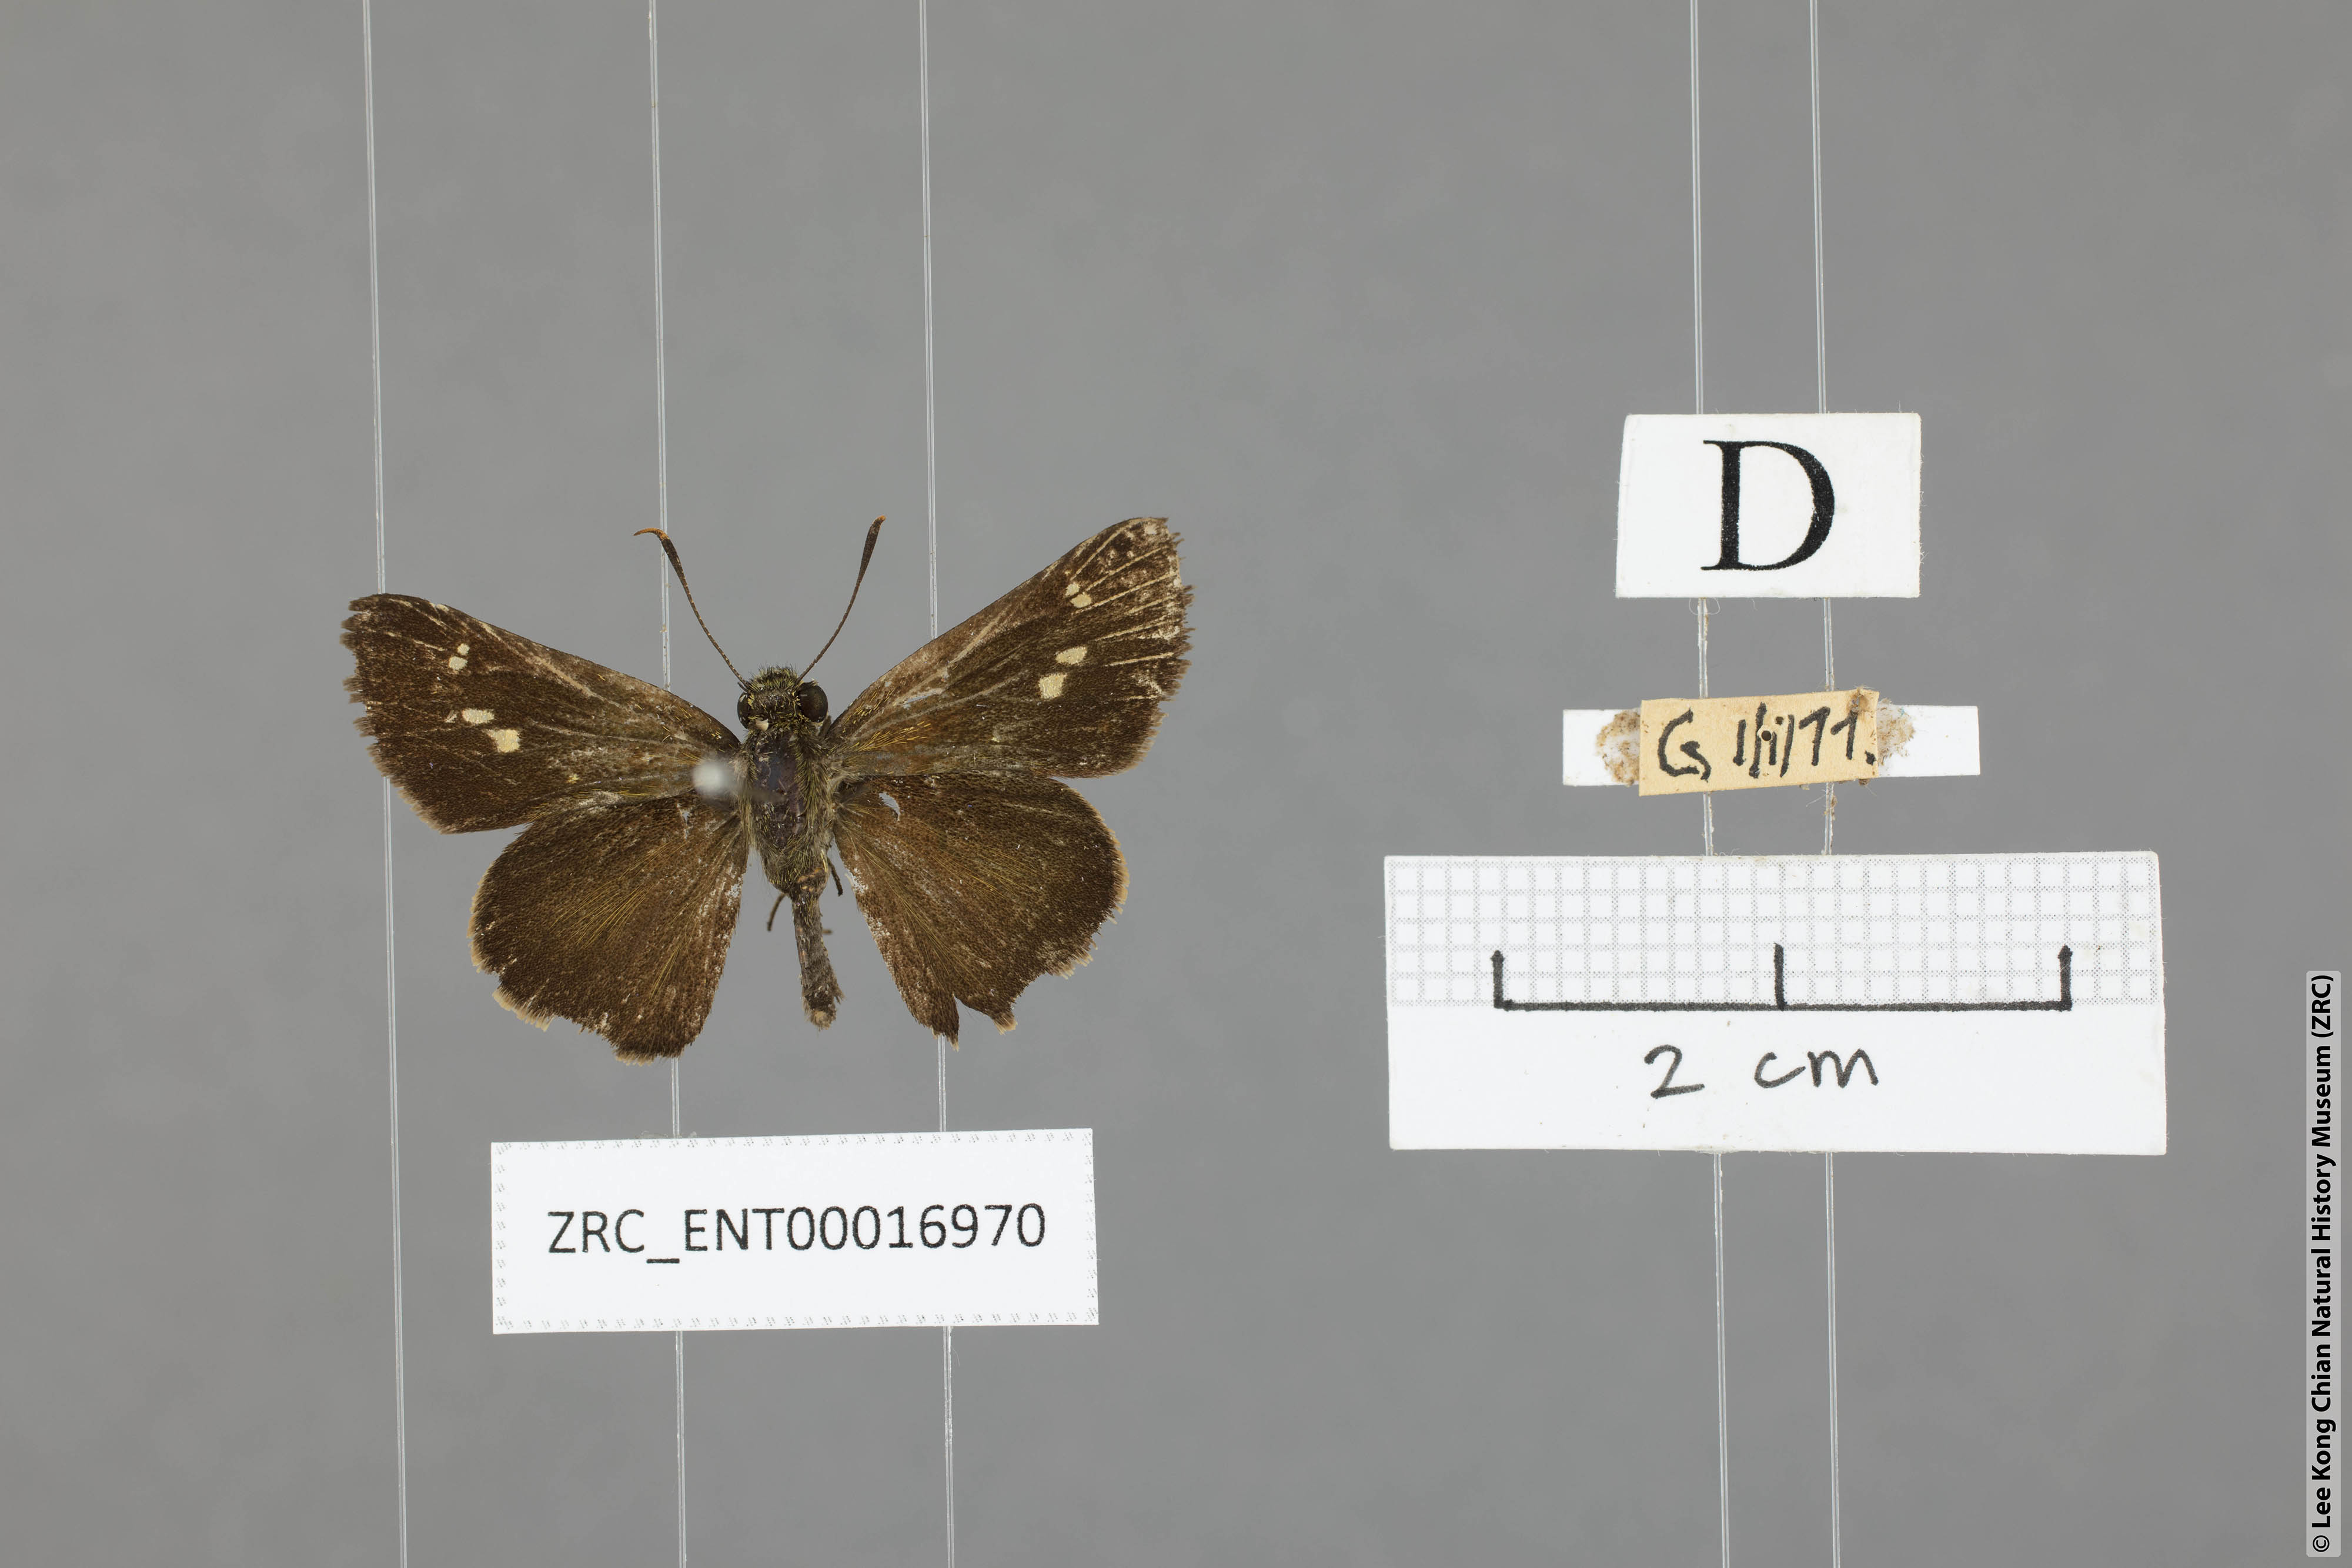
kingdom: Animalia
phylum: Arthropoda
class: Insecta
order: Lepidoptera
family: Hesperiidae
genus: Halpe
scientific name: Halpe clara
